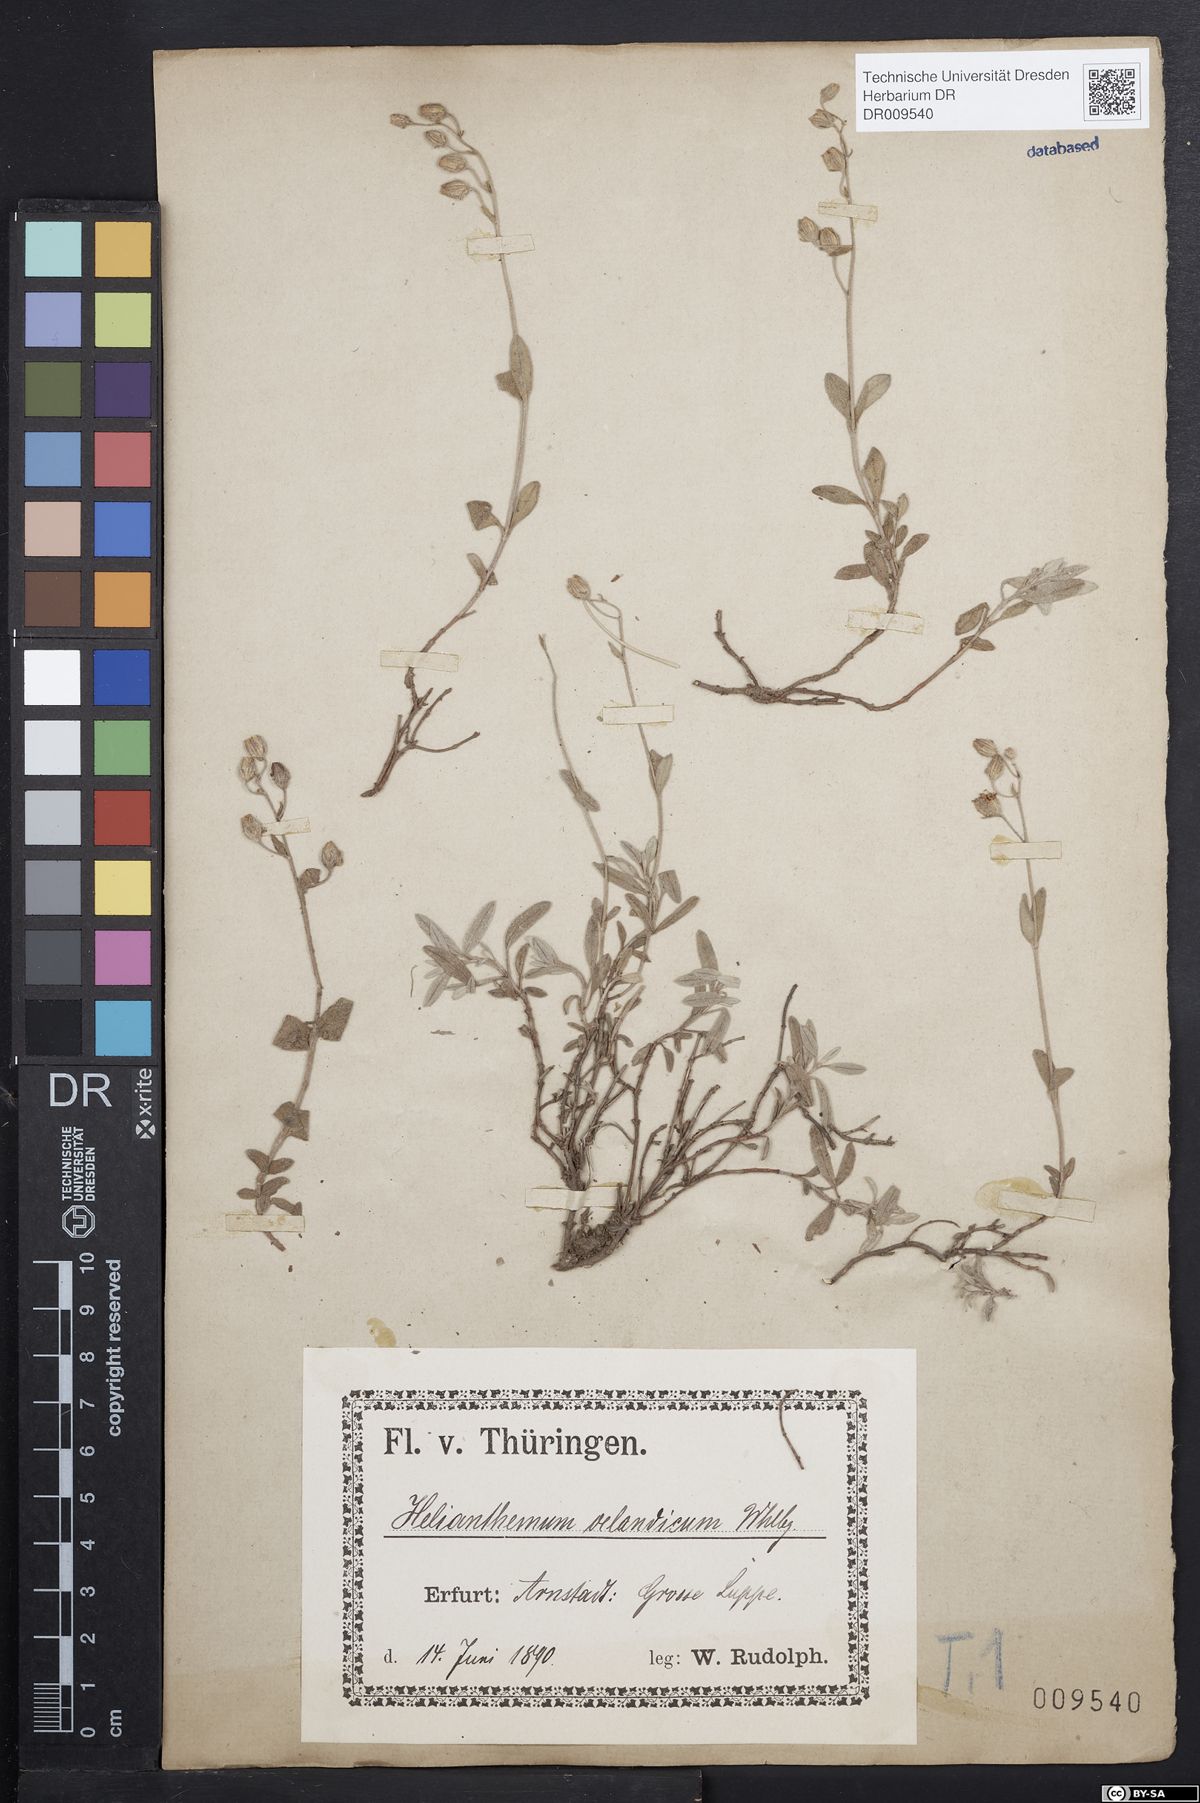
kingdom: Plantae
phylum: Tracheophyta
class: Magnoliopsida
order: Malvales
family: Cistaceae
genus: Helianthemum
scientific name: Helianthemum canum
